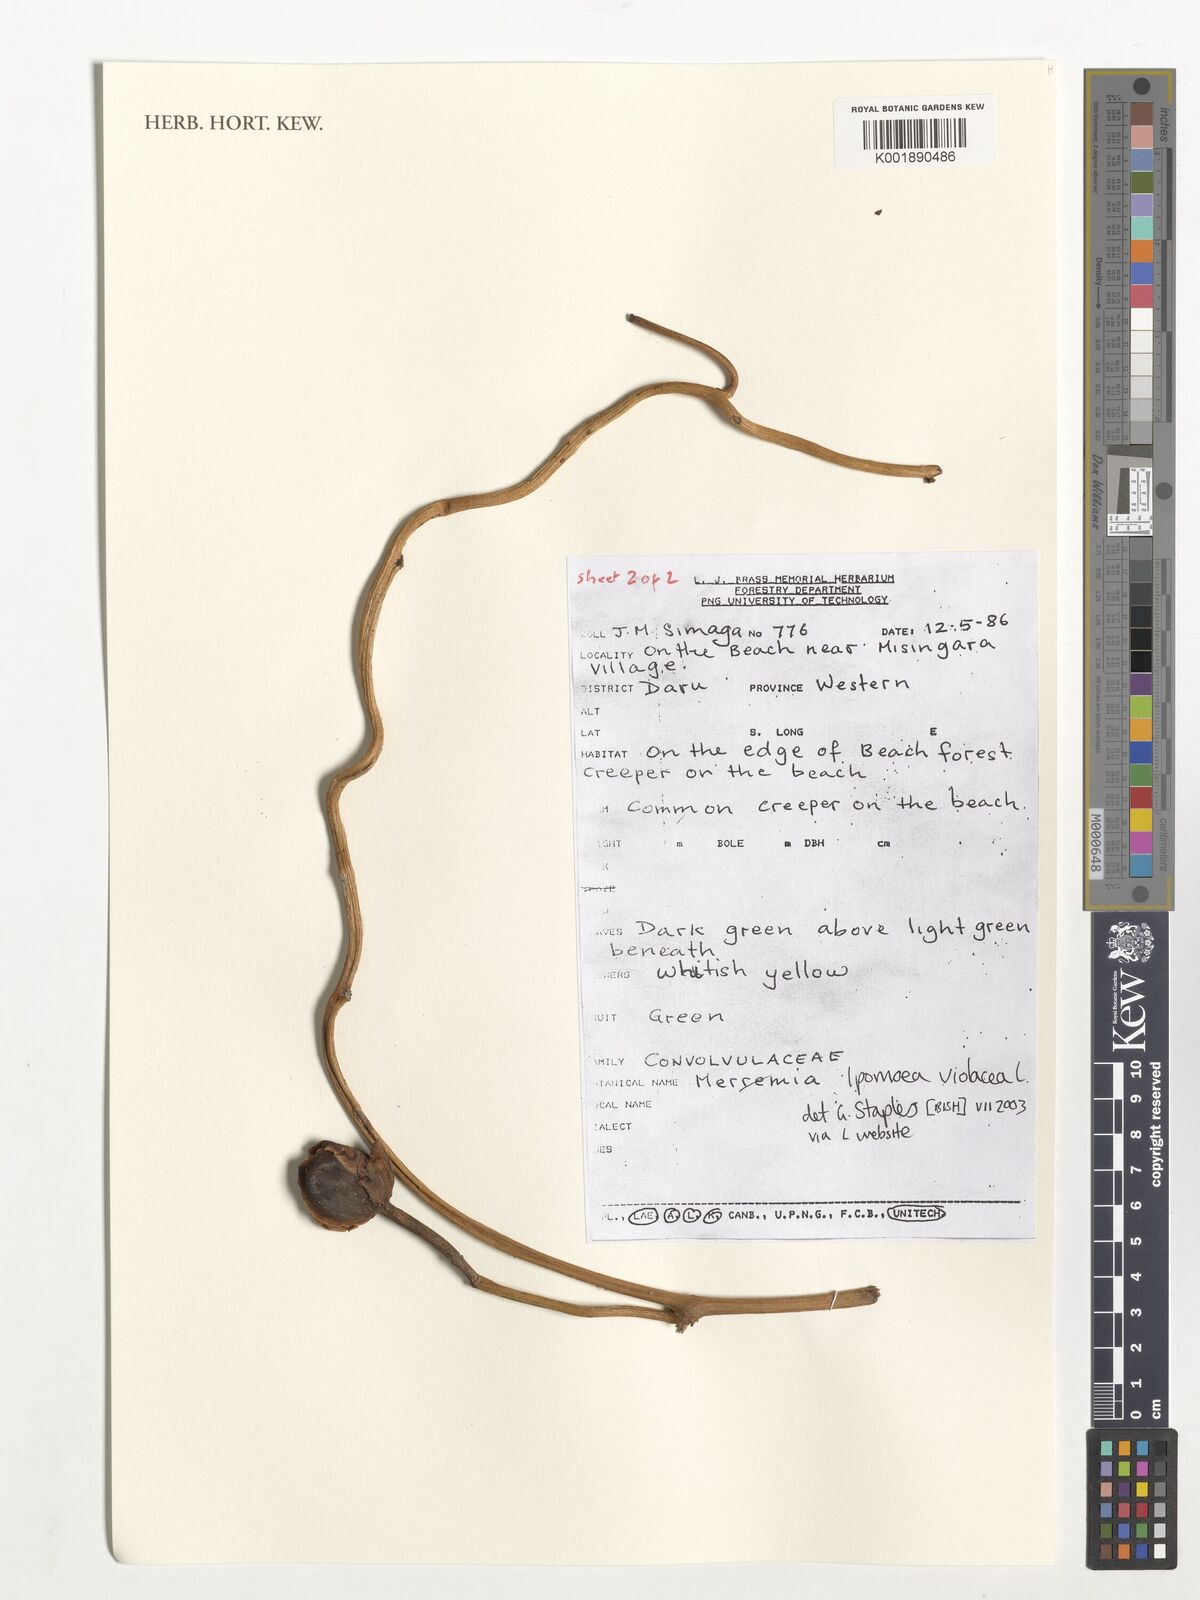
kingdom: Plantae
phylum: Tracheophyta
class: Magnoliopsida
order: Solanales
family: Convolvulaceae
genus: Ipomoea
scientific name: Ipomoea violacea
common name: Beach moonflower
